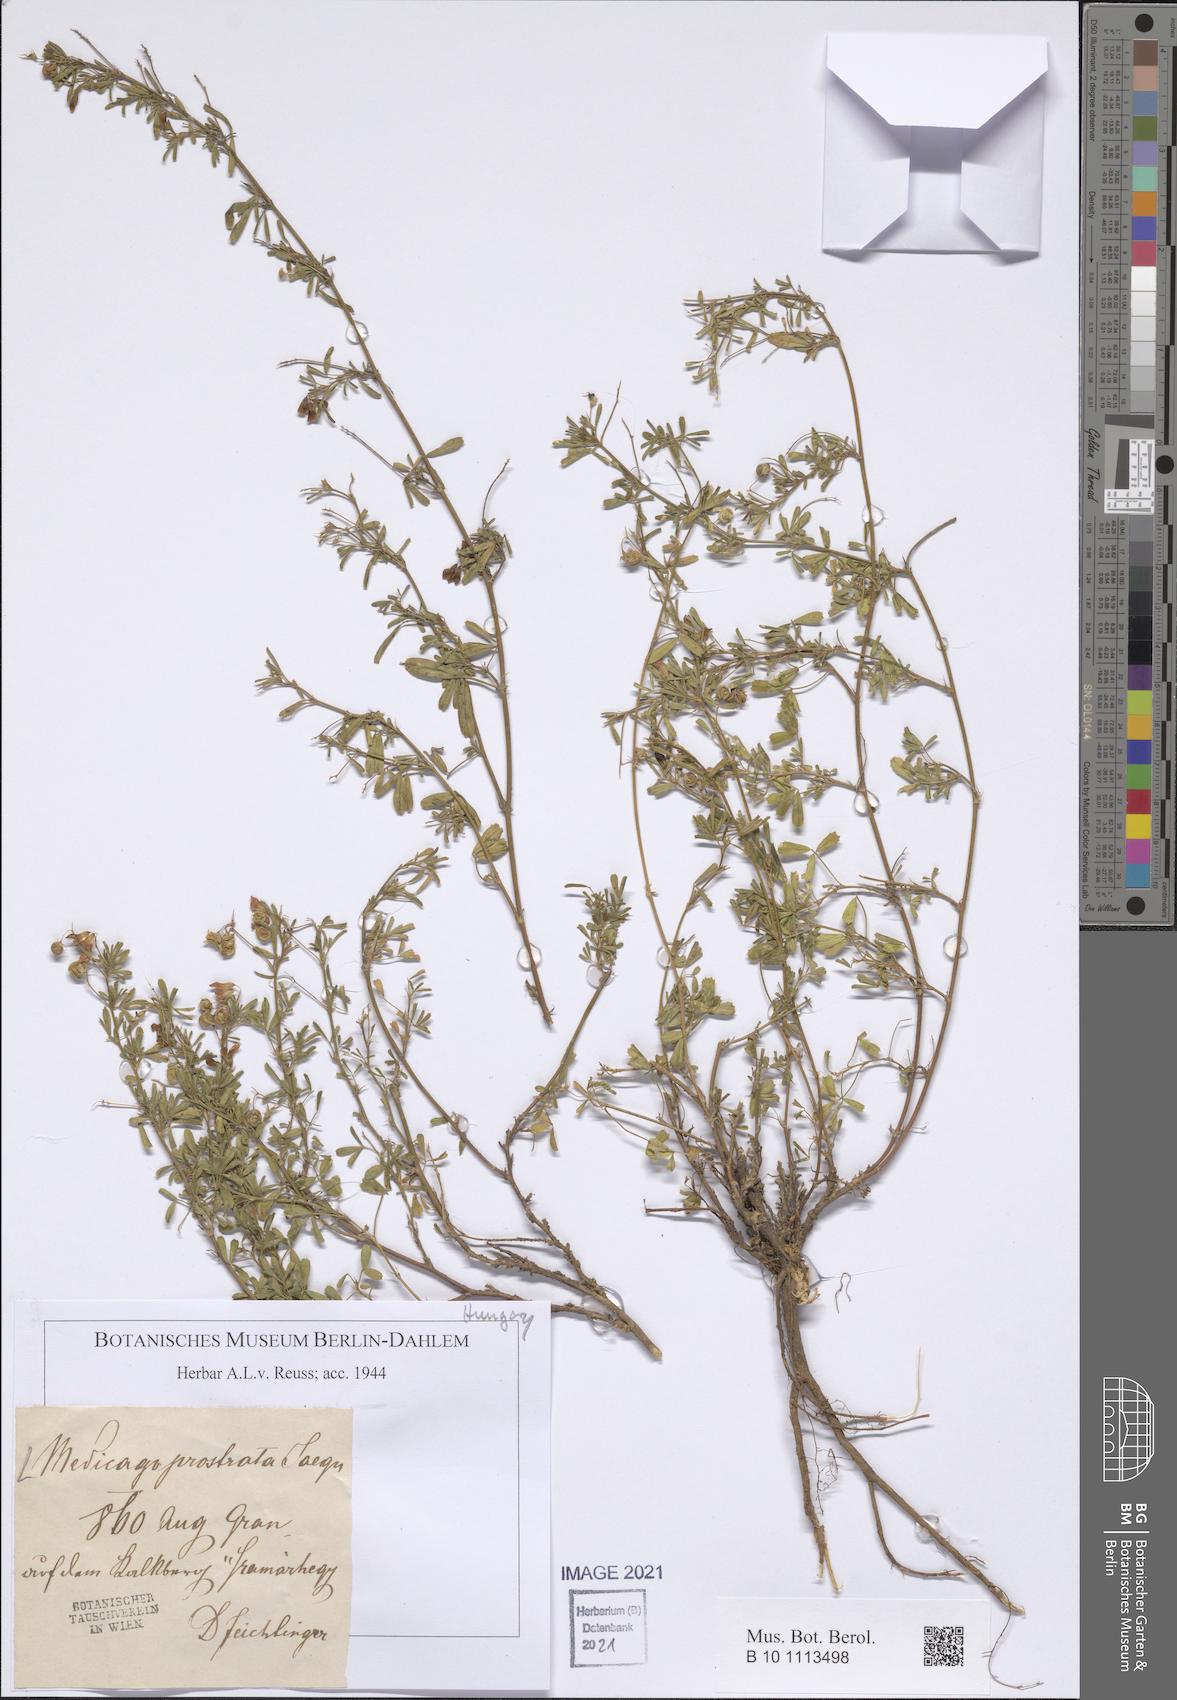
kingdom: Plantae
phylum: Tracheophyta
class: Magnoliopsida
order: Fabales
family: Fabaceae
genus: Medicago
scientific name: Medicago prostrata
